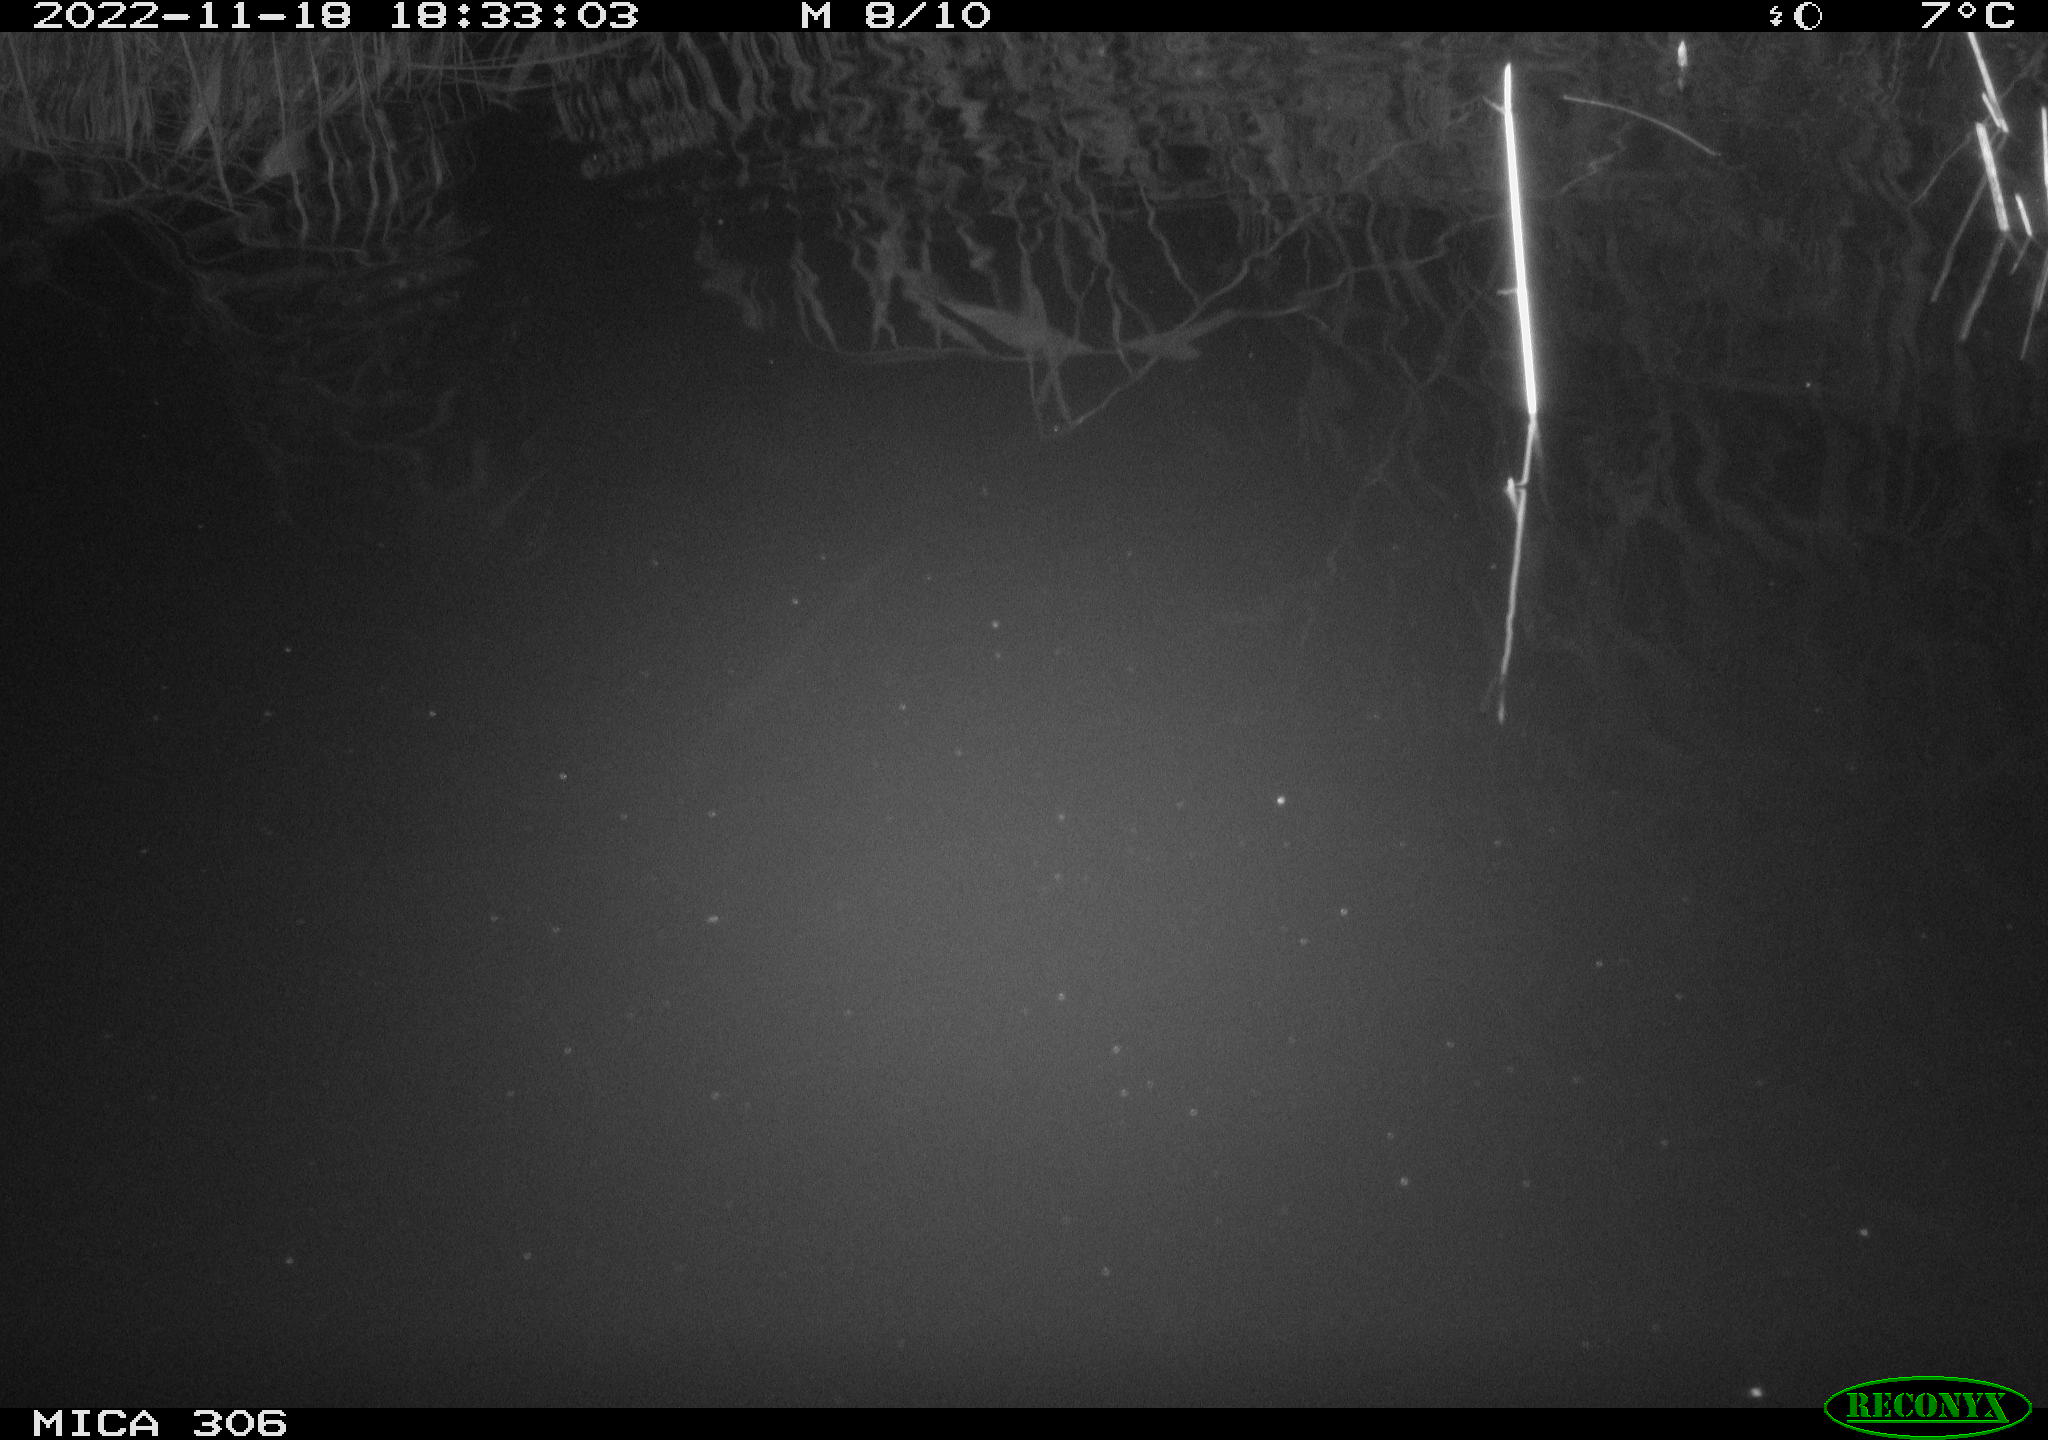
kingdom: Animalia
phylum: Chordata
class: Mammalia
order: Rodentia
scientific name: Rodentia
